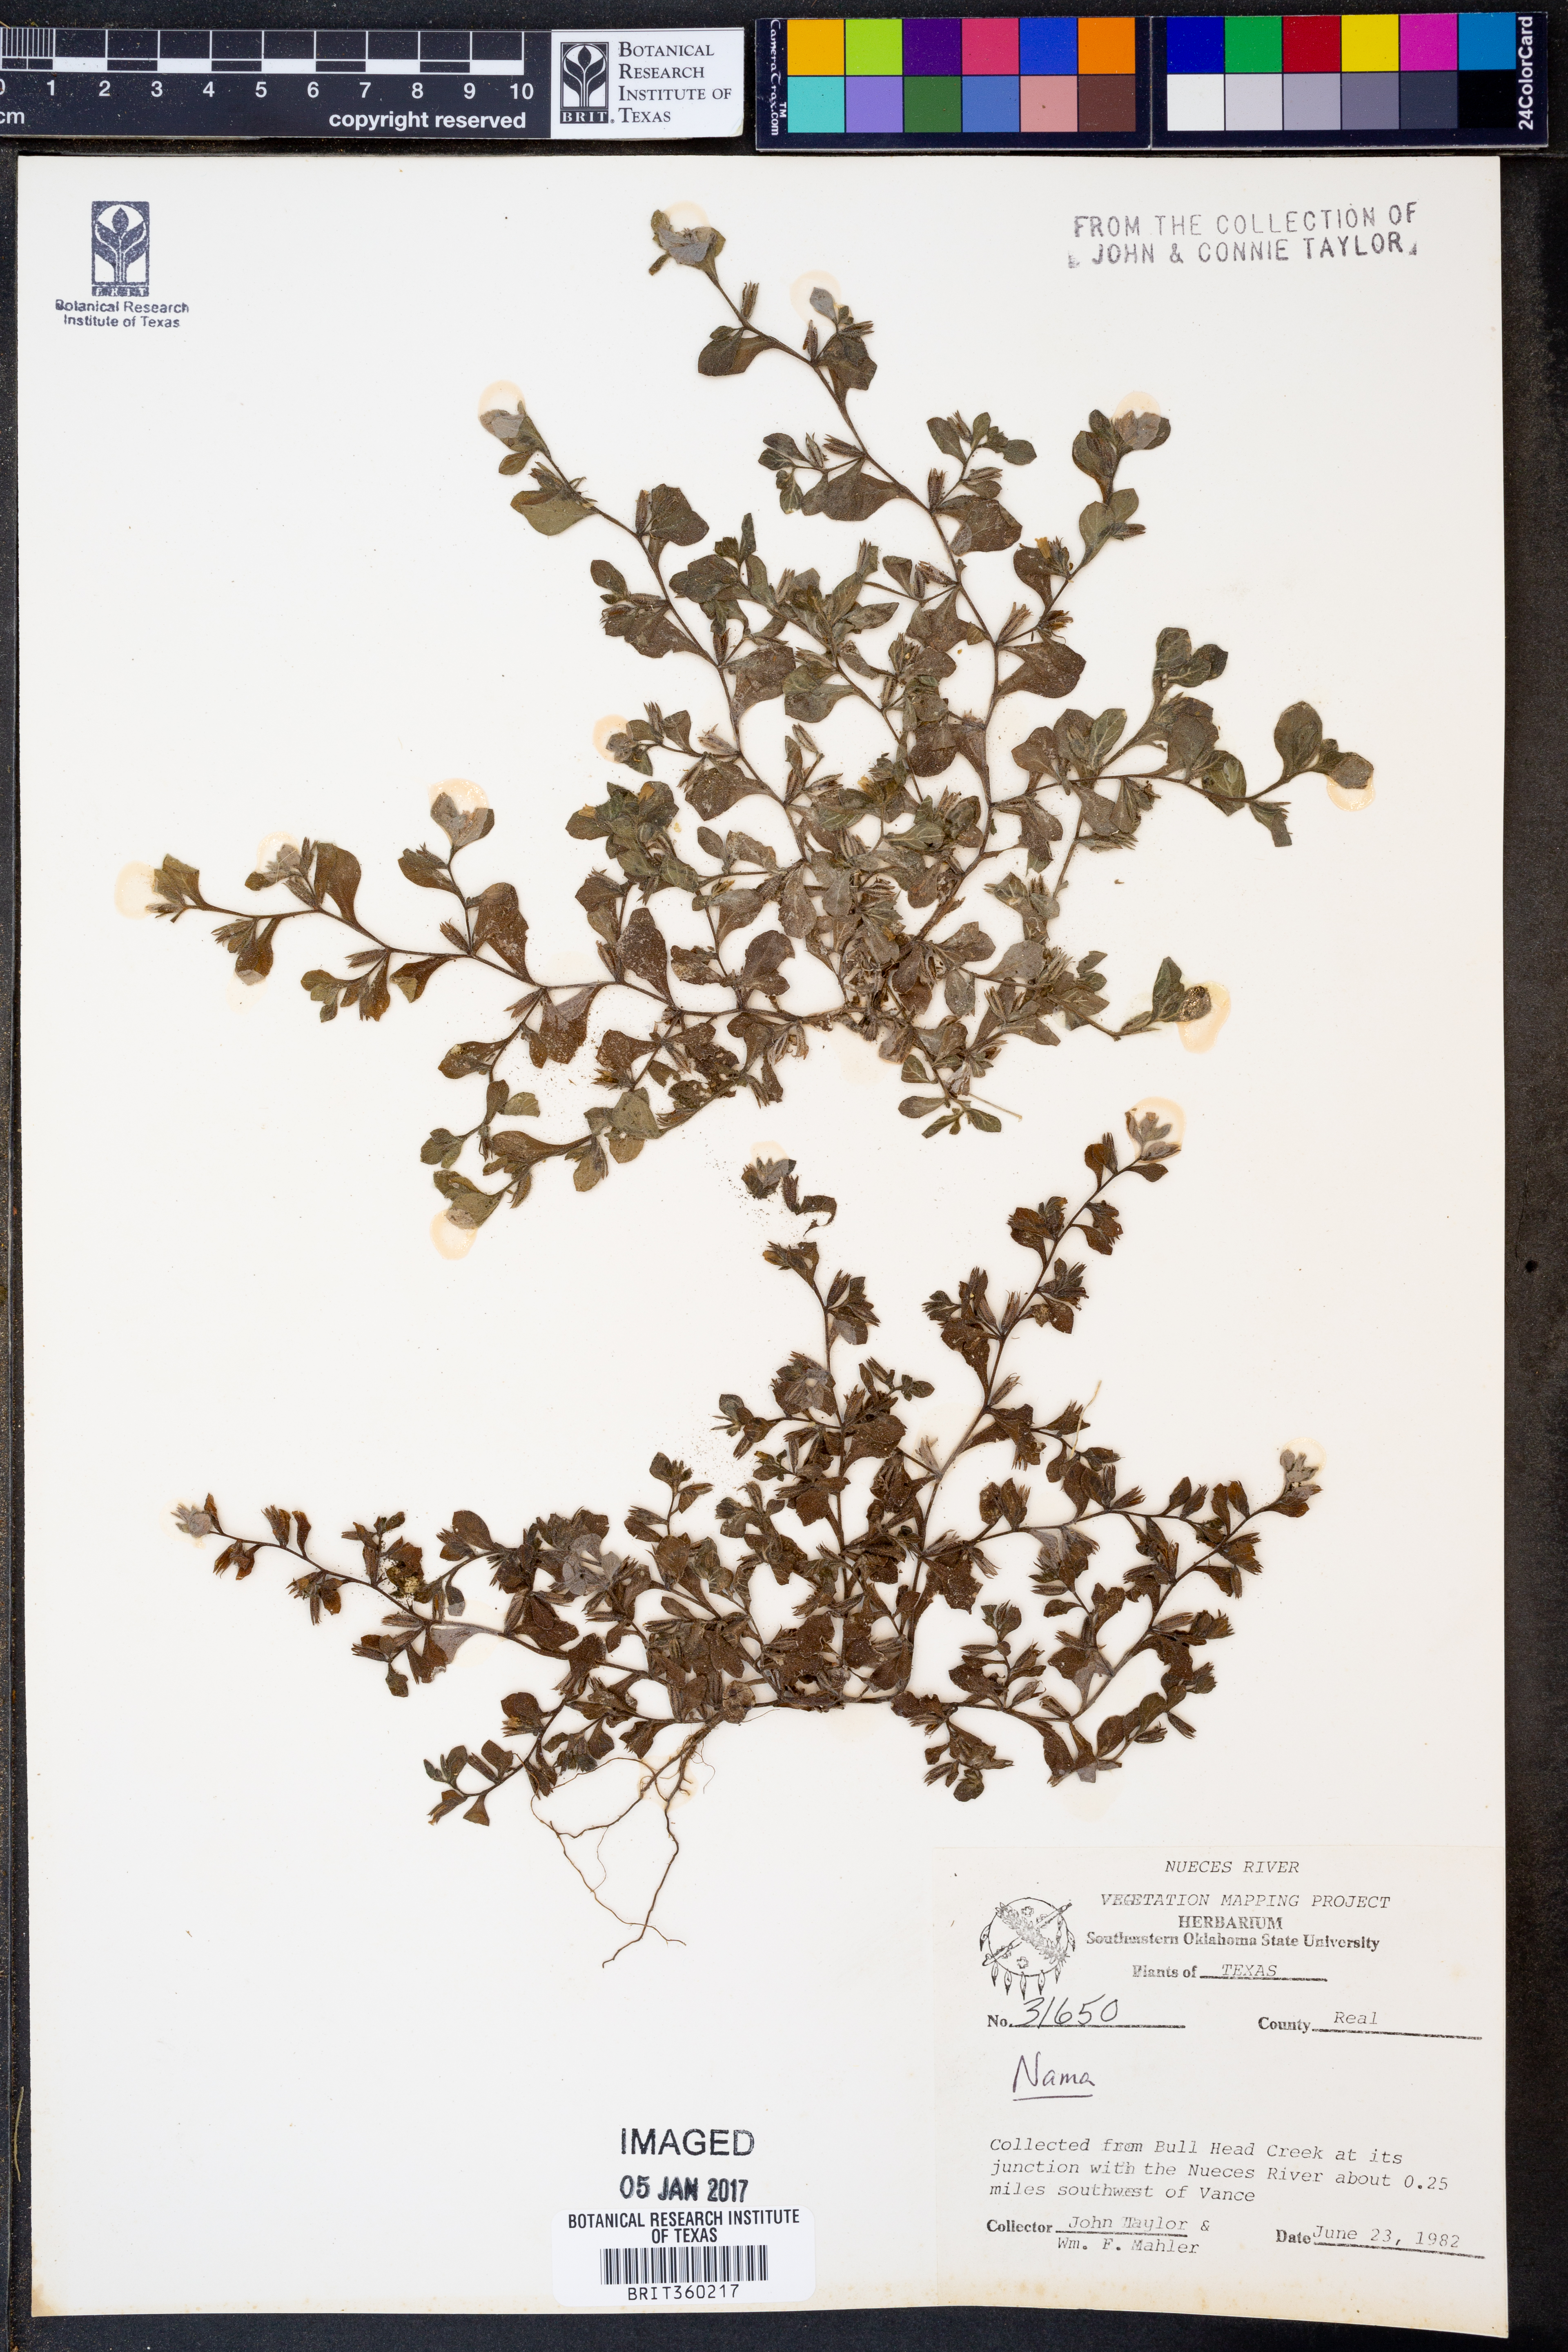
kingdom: Plantae
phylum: Tracheophyta
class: Magnoliopsida
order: Boraginales
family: Namaceae
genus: Nama
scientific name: Nama
